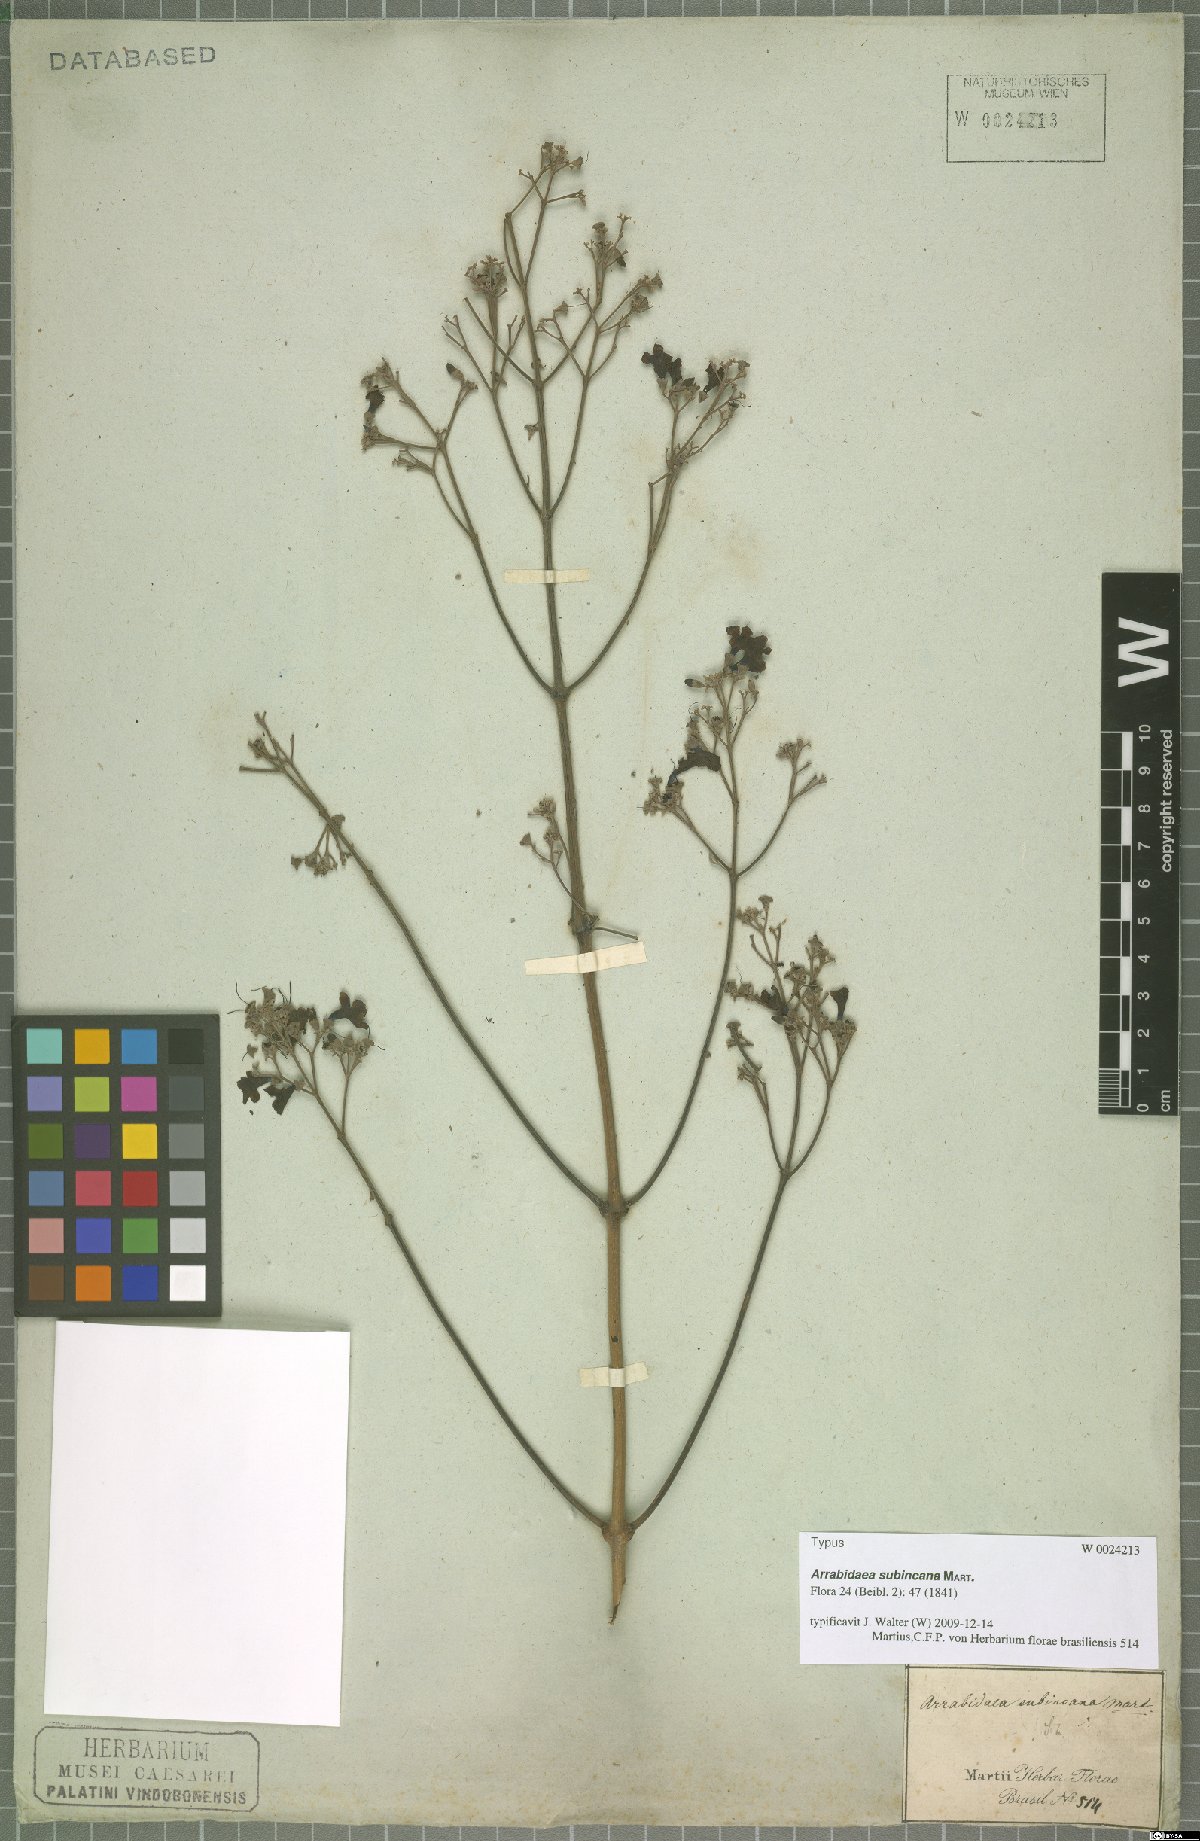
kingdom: Plantae
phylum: Tracheophyta
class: Magnoliopsida
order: Lamiales
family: Bignoniaceae
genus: Fridericia
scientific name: Fridericia subincana
